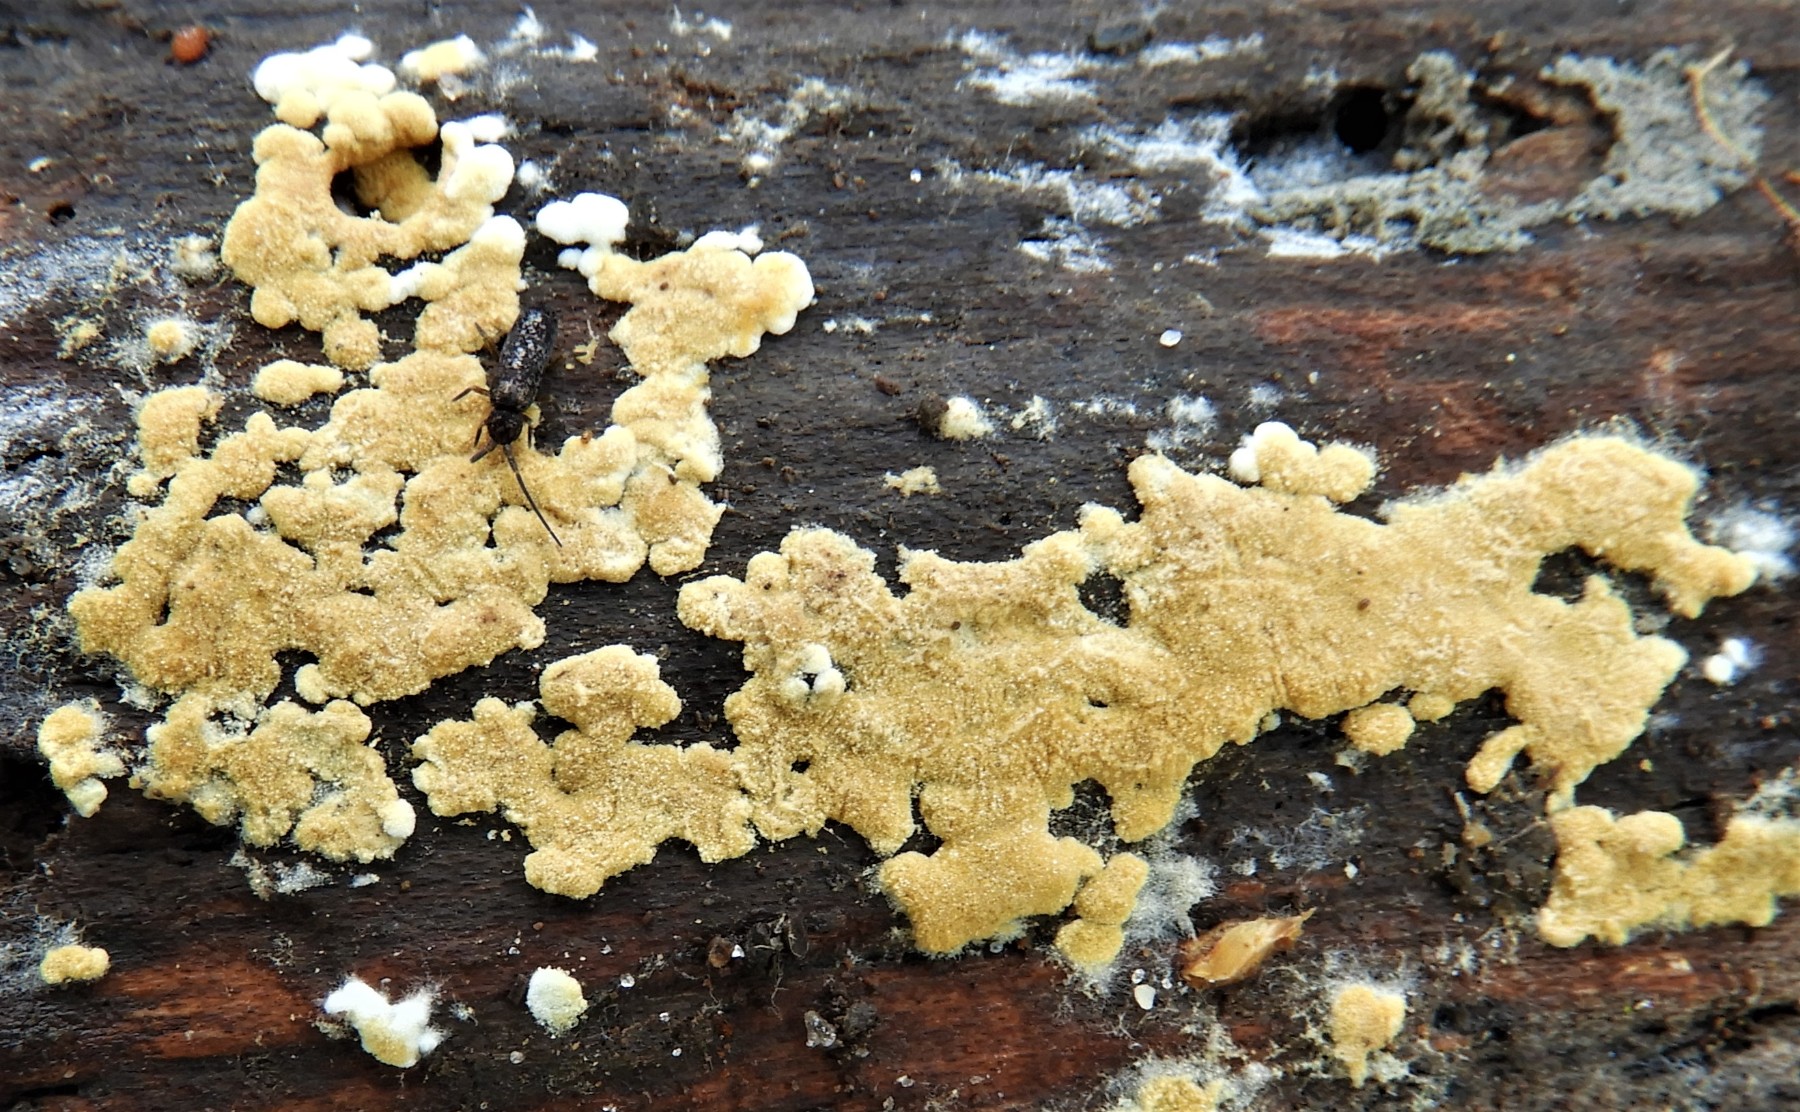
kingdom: Fungi
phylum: Basidiomycota
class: Agaricomycetes
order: Cantharellales
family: Botryobasidiaceae
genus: Botryobasidium
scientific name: Botryobasidium aureum
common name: gylden spindhinde
